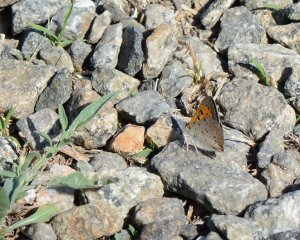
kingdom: Animalia
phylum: Arthropoda
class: Insecta
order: Lepidoptera
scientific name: Lepidoptera
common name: Butterflies
